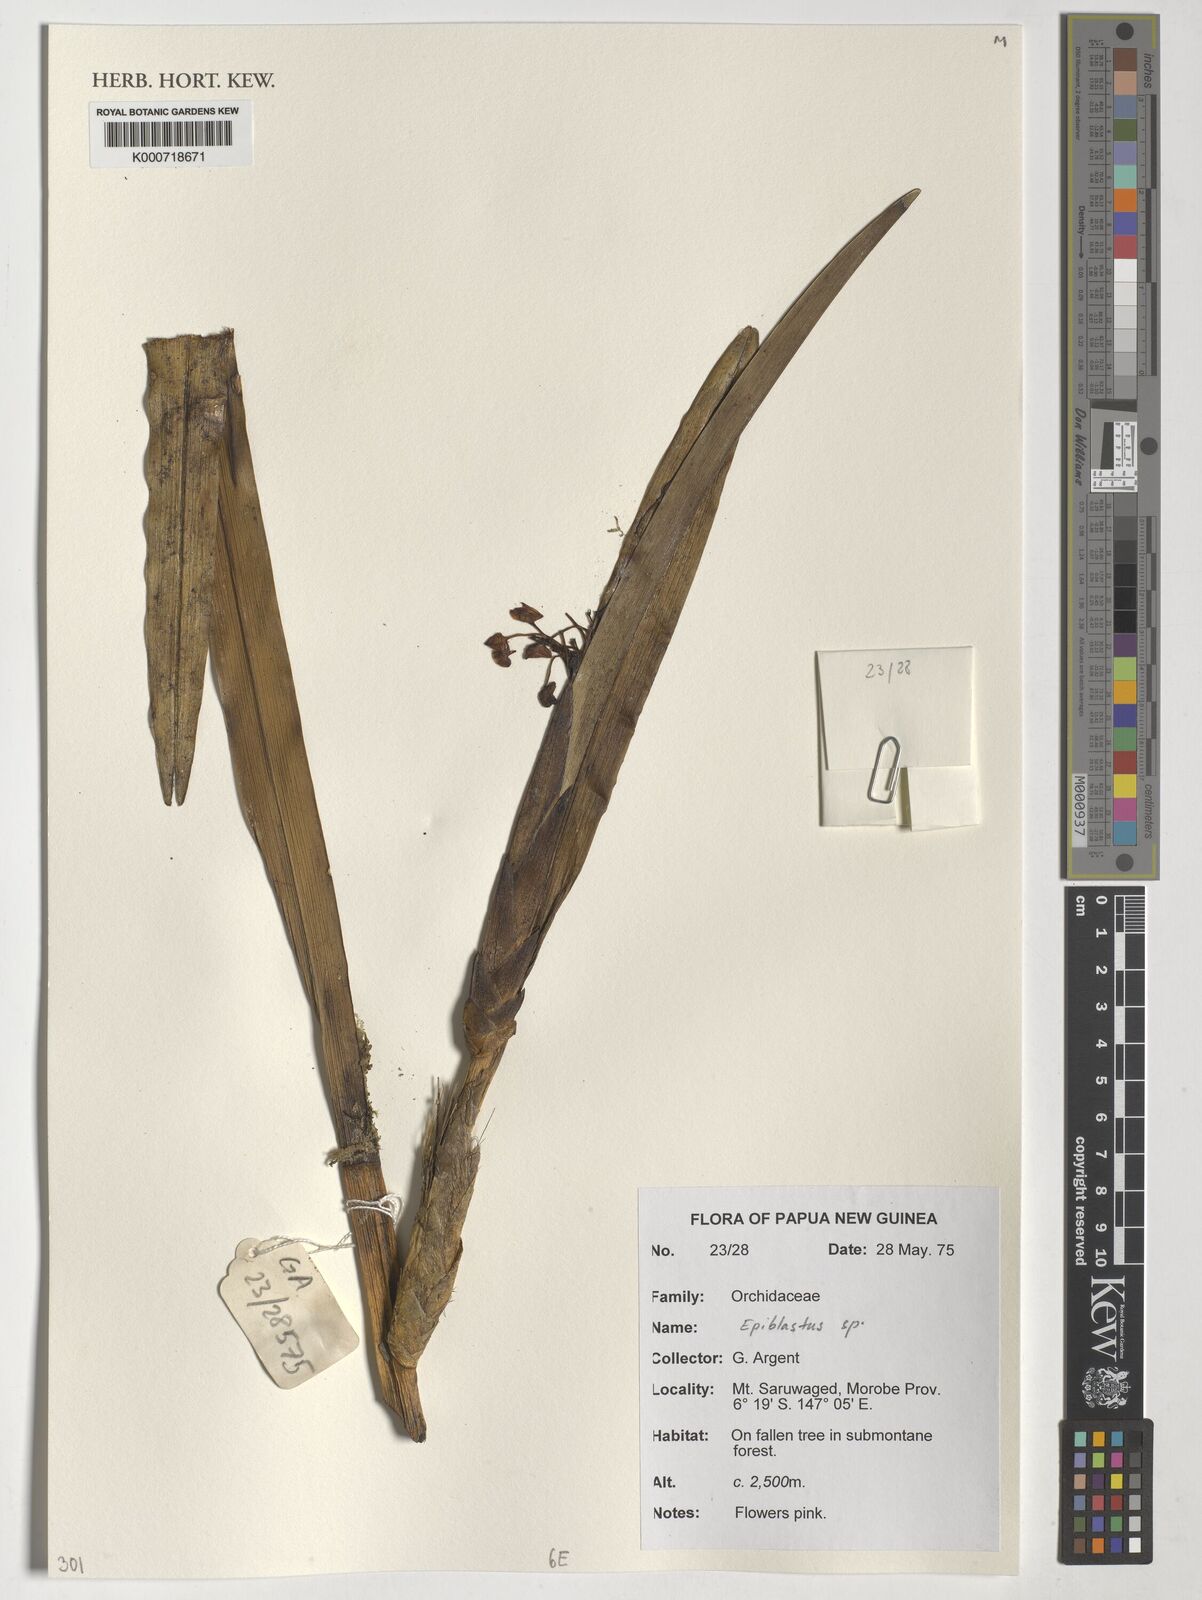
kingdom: Plantae
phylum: Tracheophyta
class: Liliopsida
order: Asparagales
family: Orchidaceae
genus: Epiblastus
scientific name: Epiblastus
